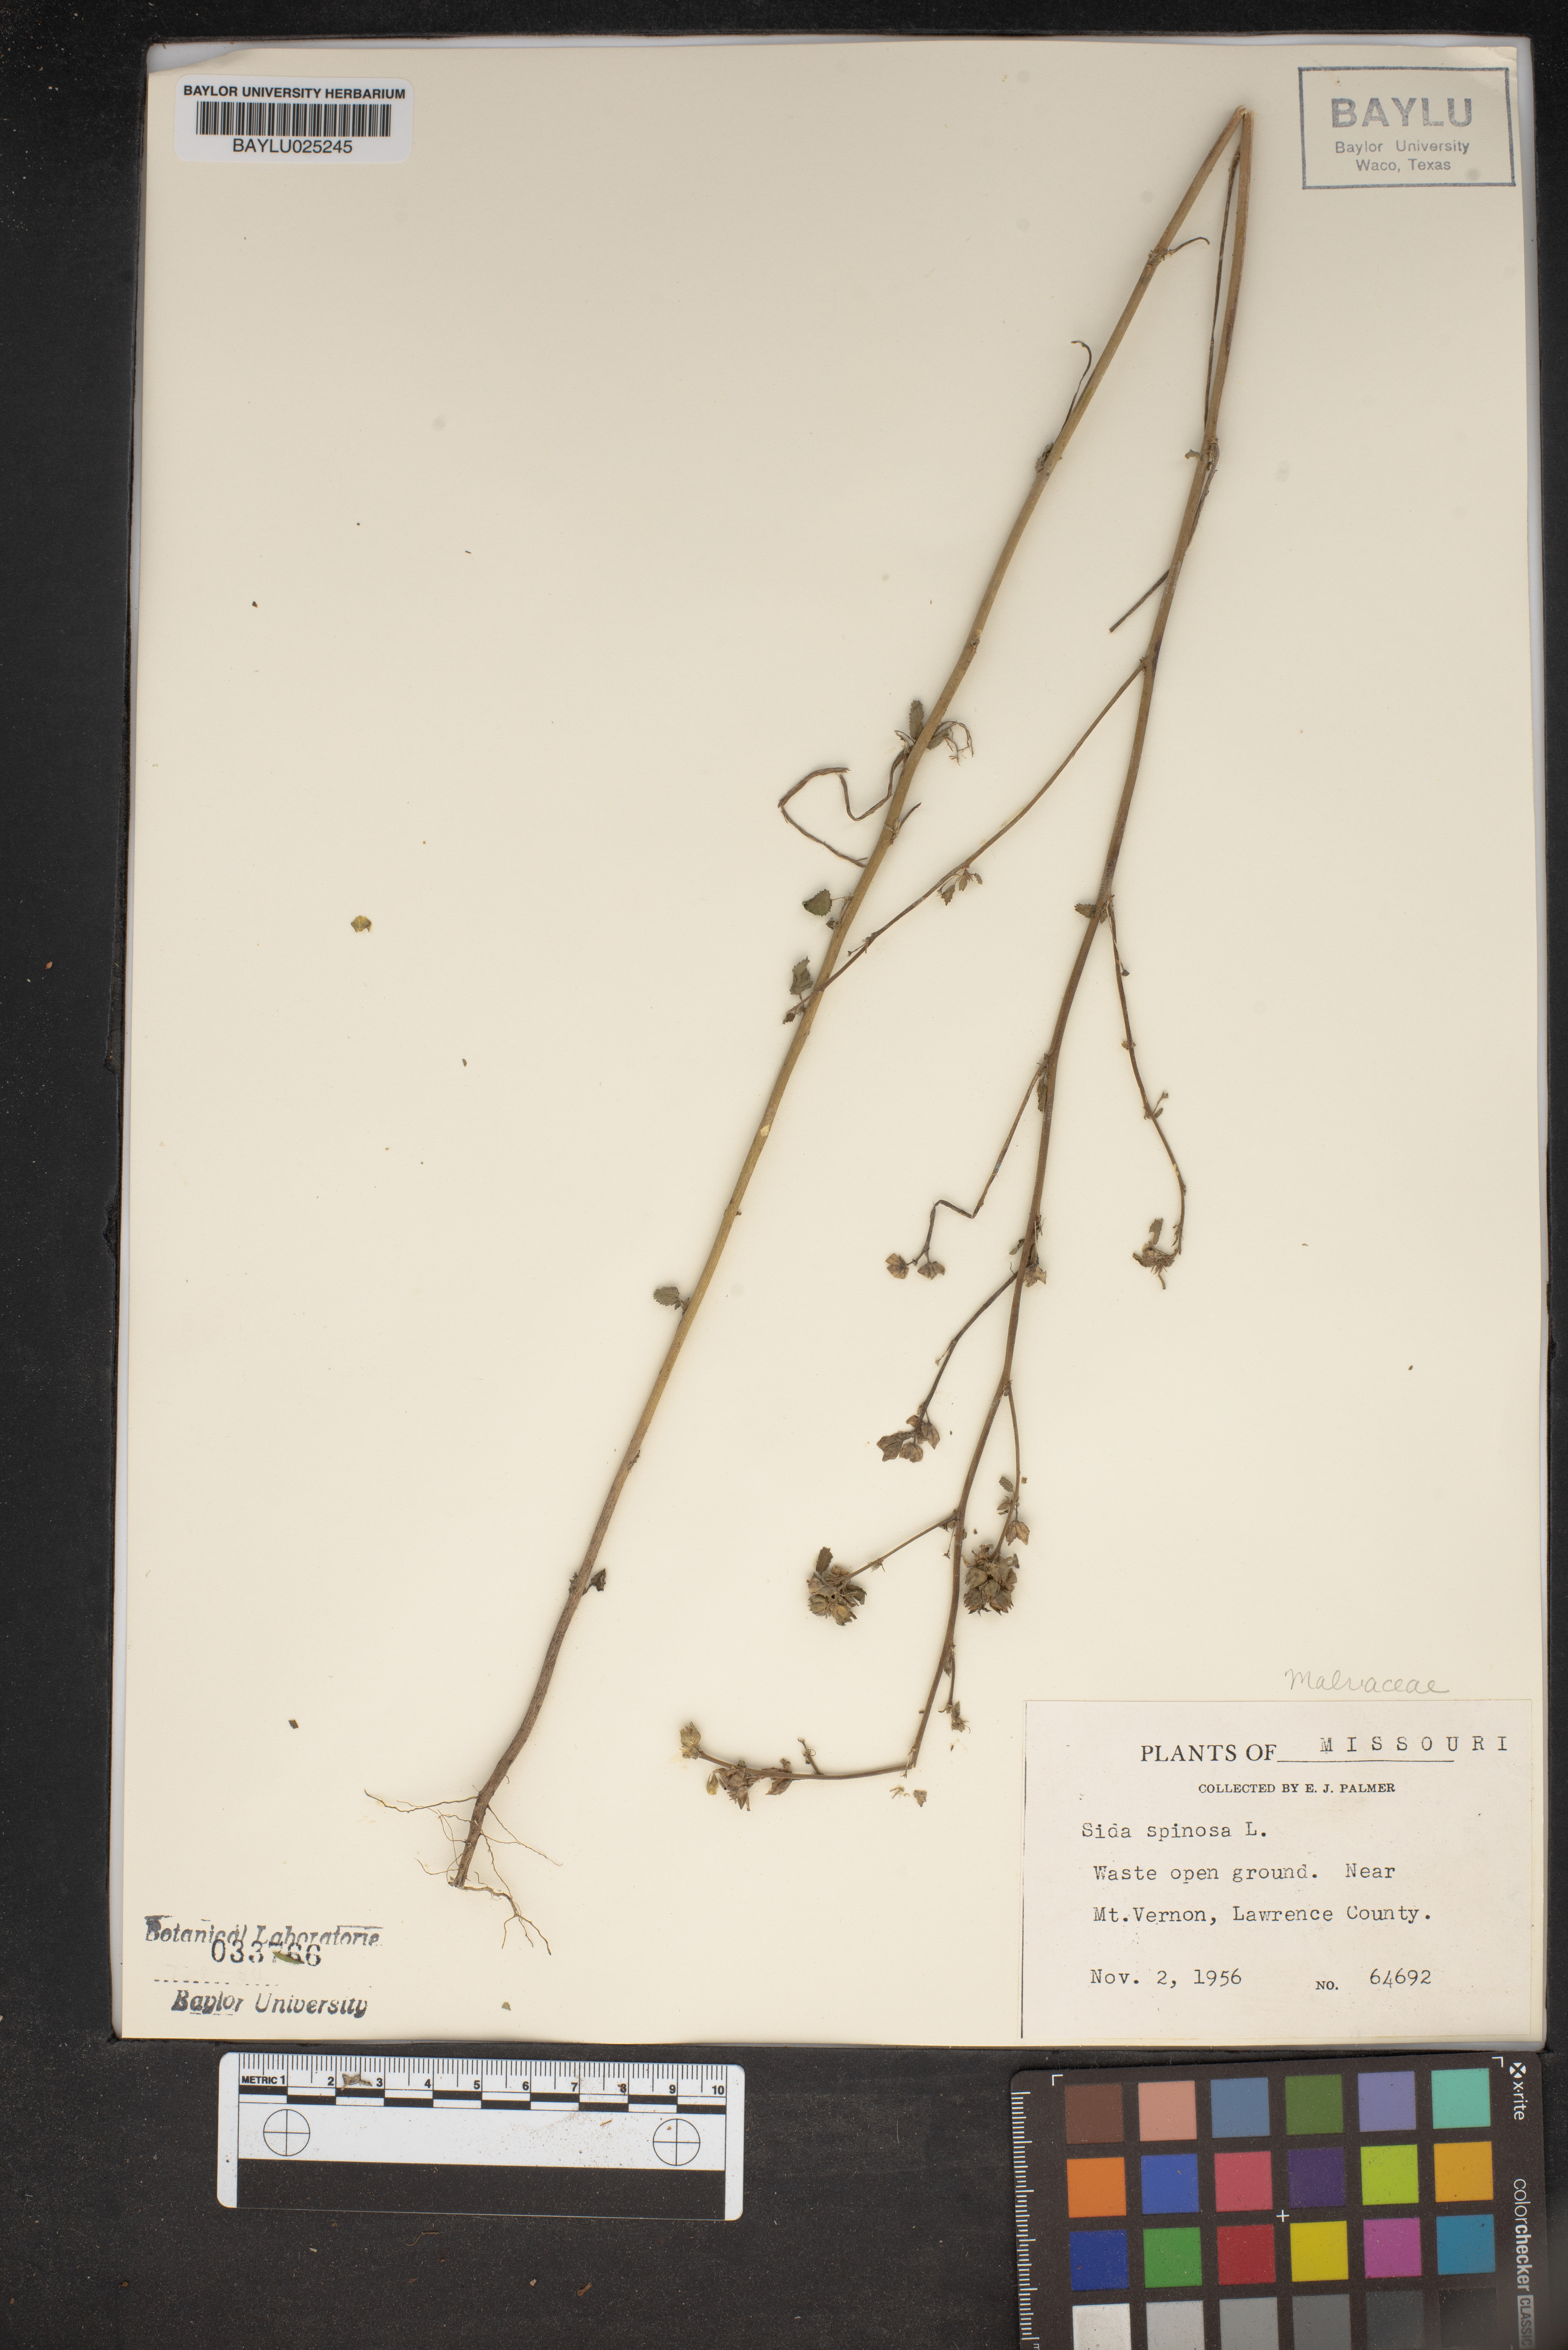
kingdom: Plantae
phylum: Tracheophyta
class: Magnoliopsida
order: Malvales
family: Malvaceae
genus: Sida
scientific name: Sida spinosa
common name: Prickly fanpetals
